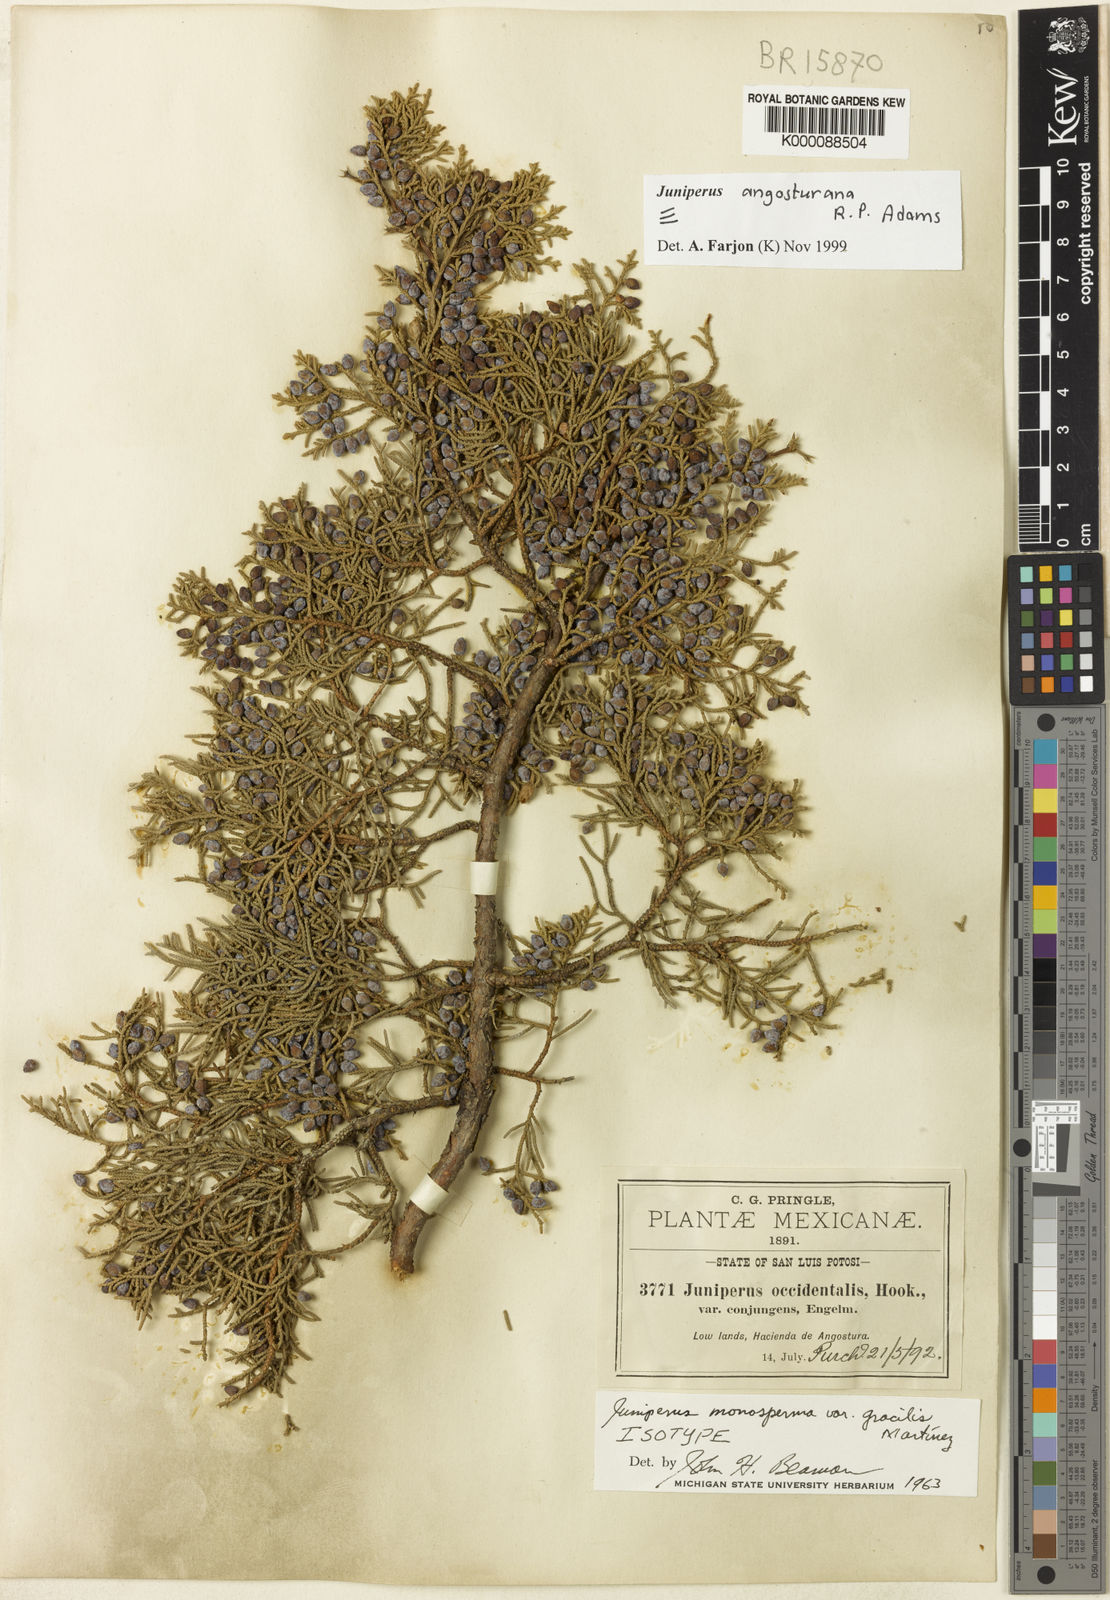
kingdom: Plantae
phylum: Tracheophyta
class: Pinopsida
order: Pinales
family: Cupressaceae
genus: Juniperus
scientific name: Juniperus angosturana
